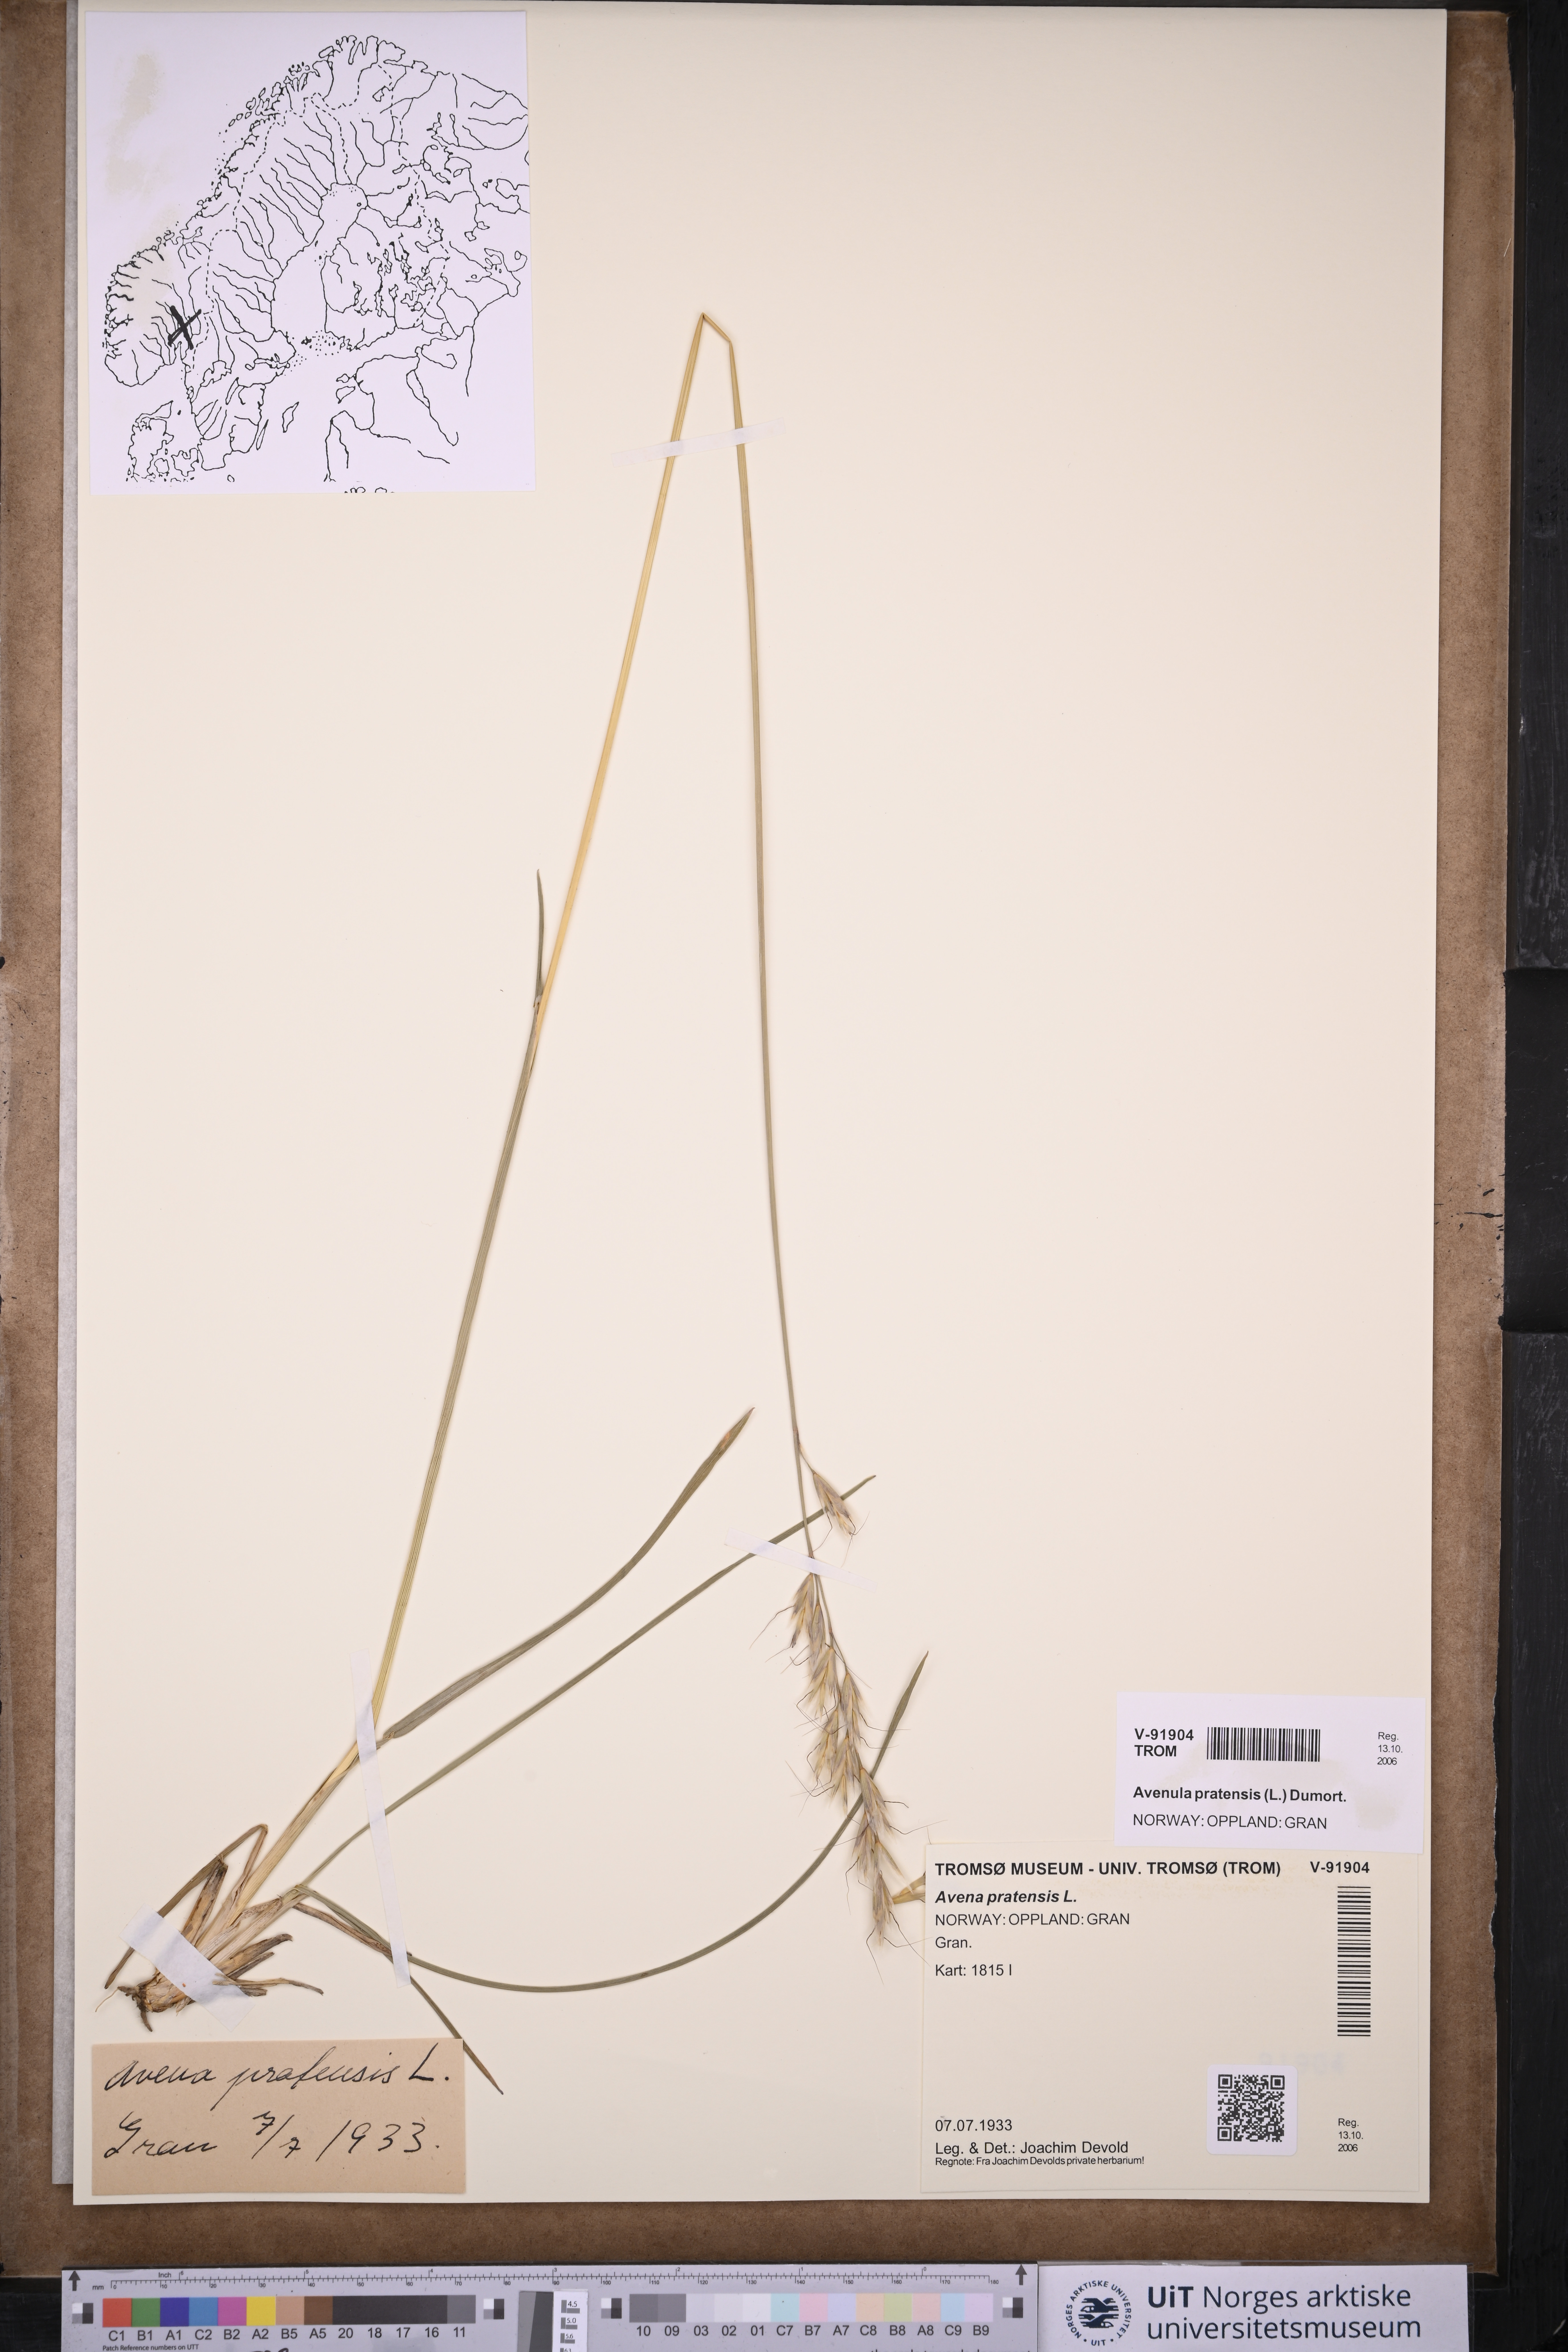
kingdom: Plantae
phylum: Tracheophyta
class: Liliopsida
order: Poales
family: Poaceae
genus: Helictochloa
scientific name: Helictochloa pratensis
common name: Meadow oat grass
